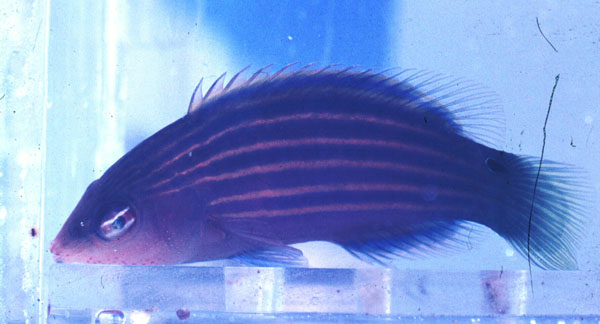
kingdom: Animalia
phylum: Chordata
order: Perciformes
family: Labridae
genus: Pseudocheilinus
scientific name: Pseudocheilinus hexataenia
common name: Sixline wrasse
